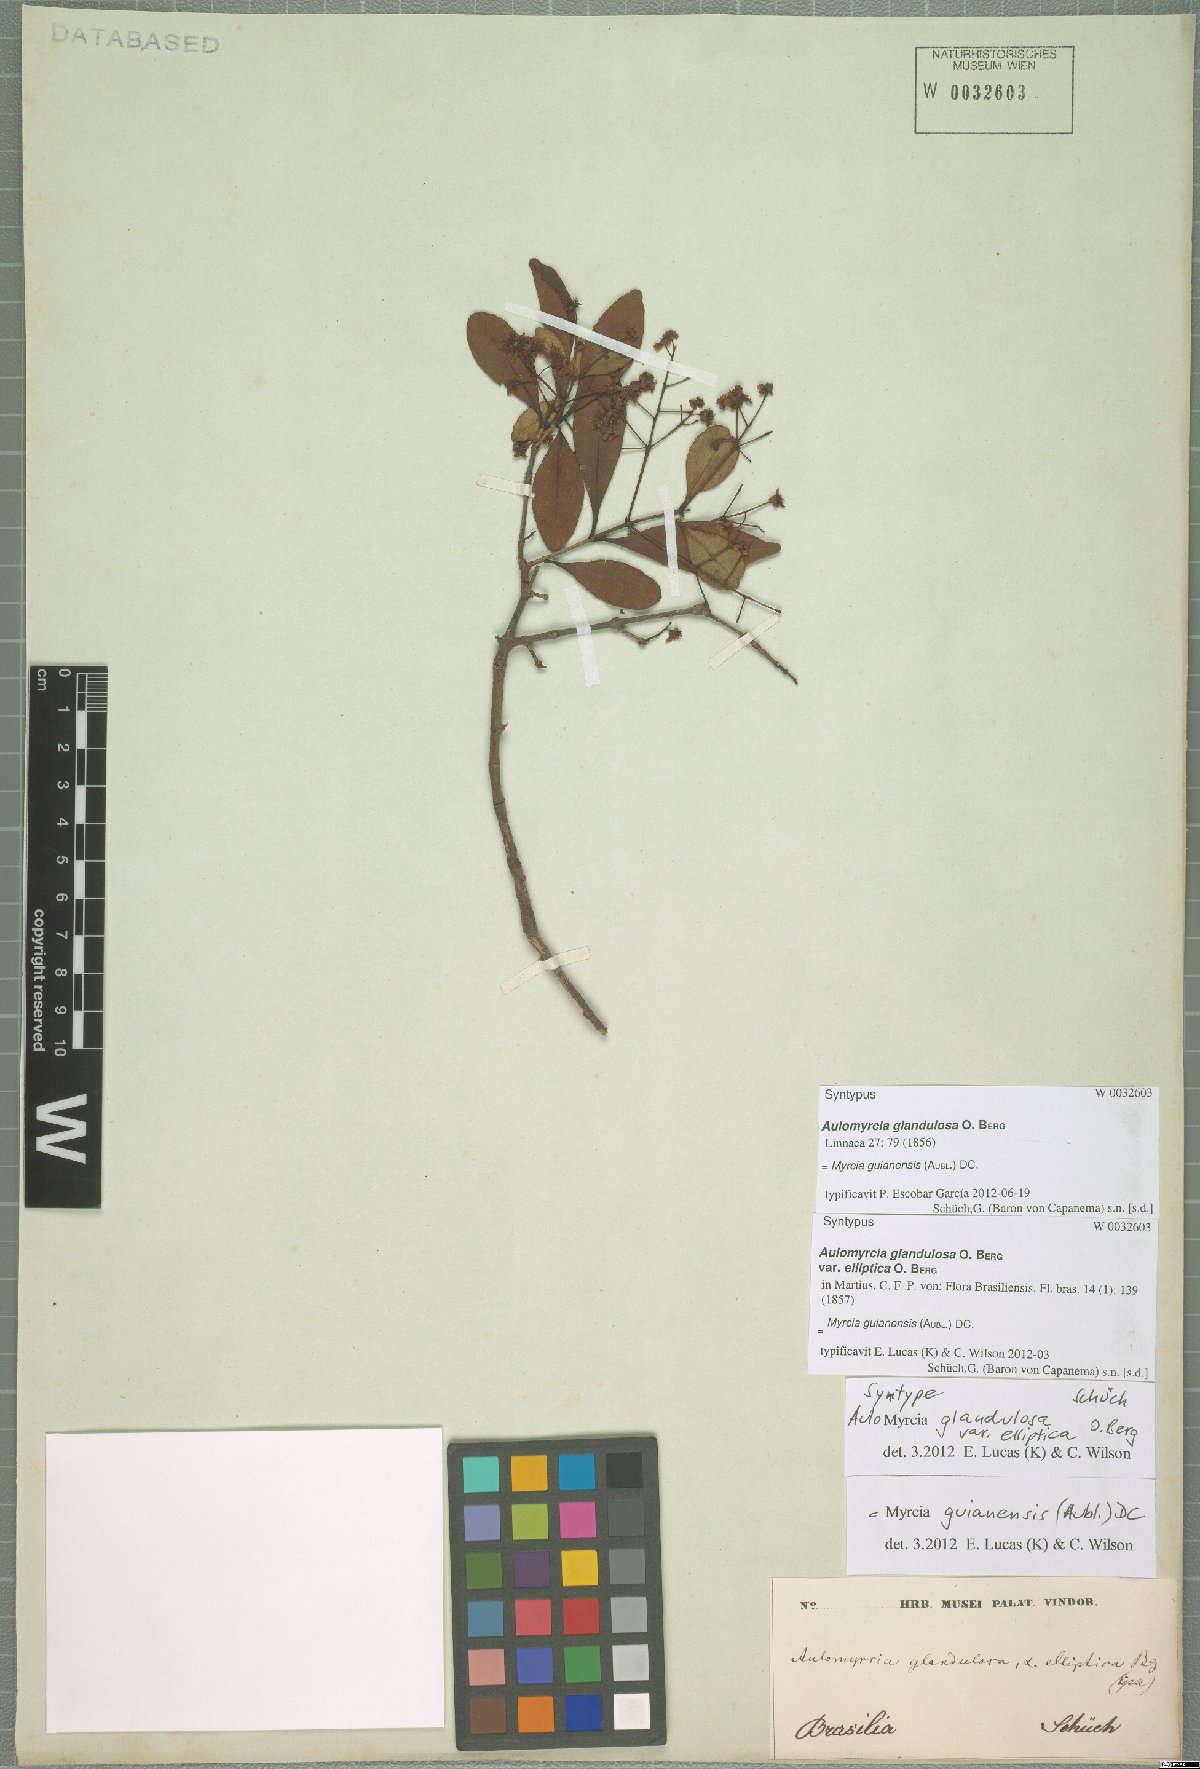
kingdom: Plantae
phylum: Tracheophyta
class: Magnoliopsida
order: Myrtales
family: Myrtaceae
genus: Myrcia
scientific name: Myrcia guianensis
